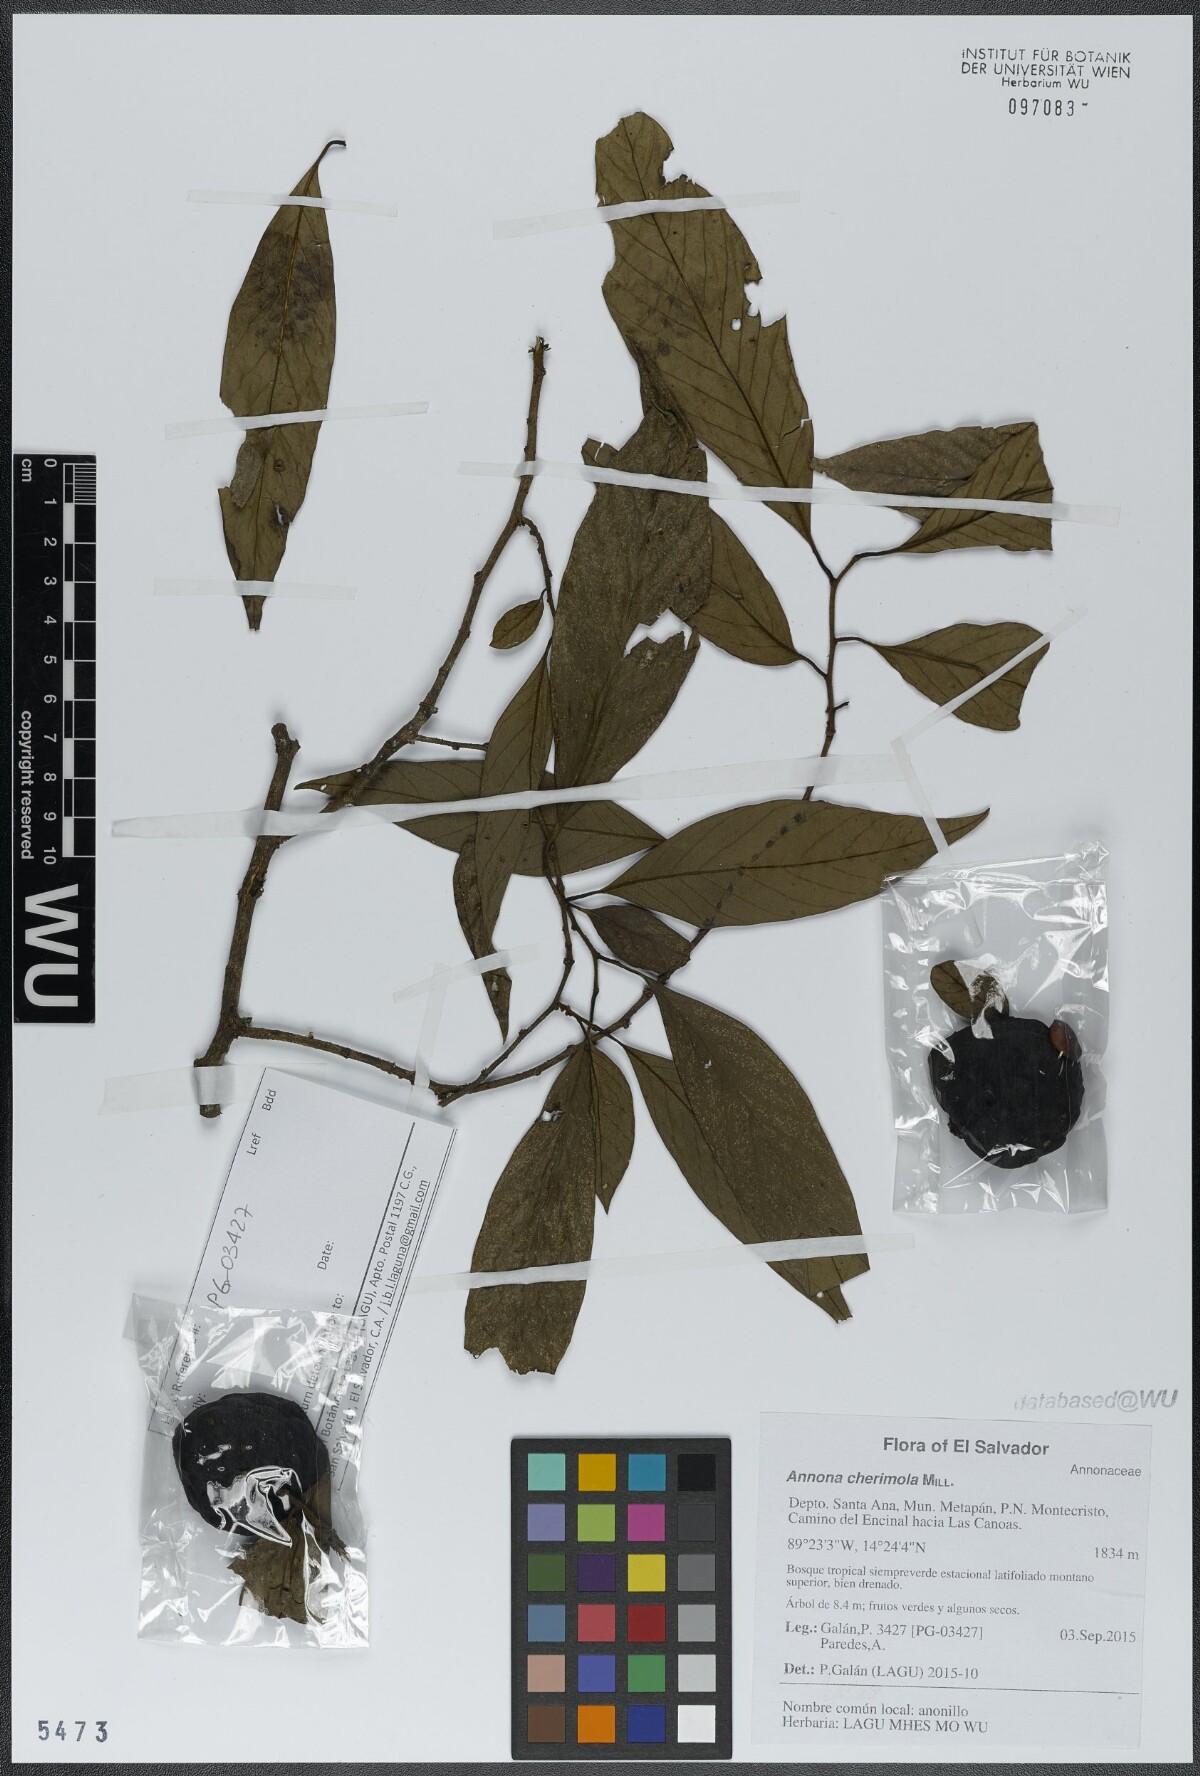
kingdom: Plantae
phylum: Tracheophyta
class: Magnoliopsida
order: Magnoliales
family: Annonaceae
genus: Annona
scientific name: Annona cherimola
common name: Cherimoya
